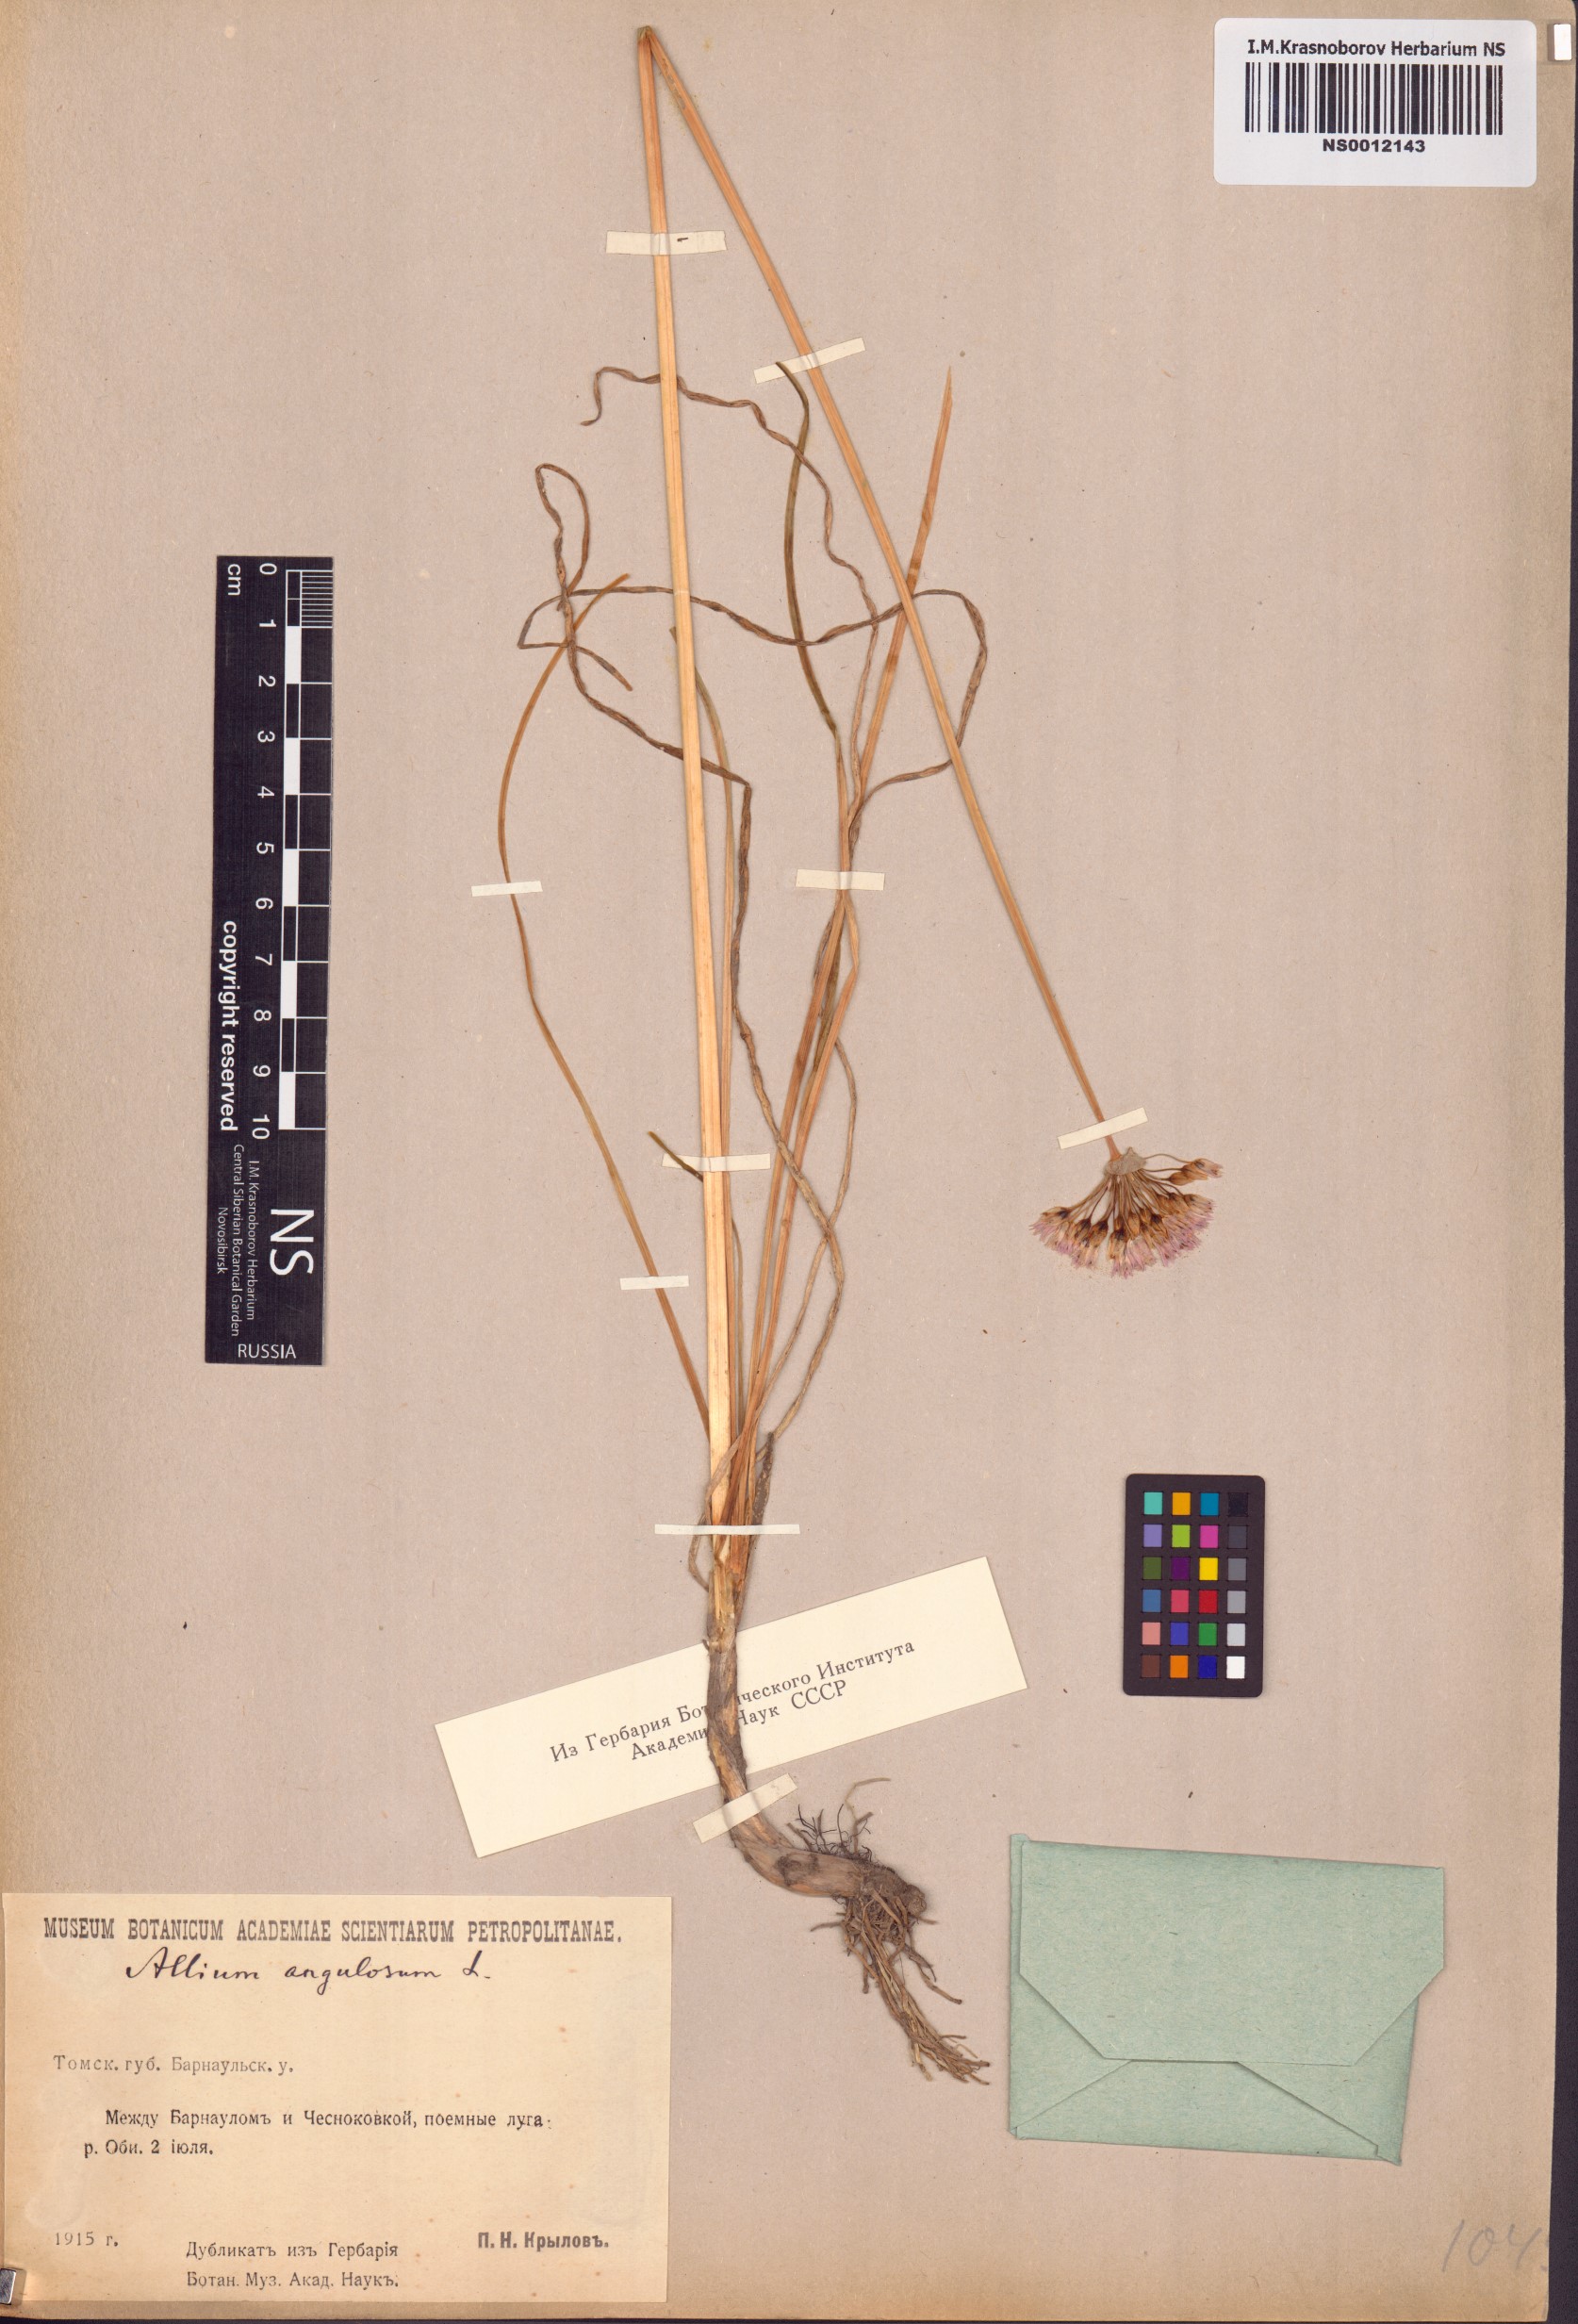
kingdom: Plantae
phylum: Tracheophyta
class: Liliopsida
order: Asparagales
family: Amaryllidaceae
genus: Allium
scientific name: Allium angulosum
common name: Mouse garlic
